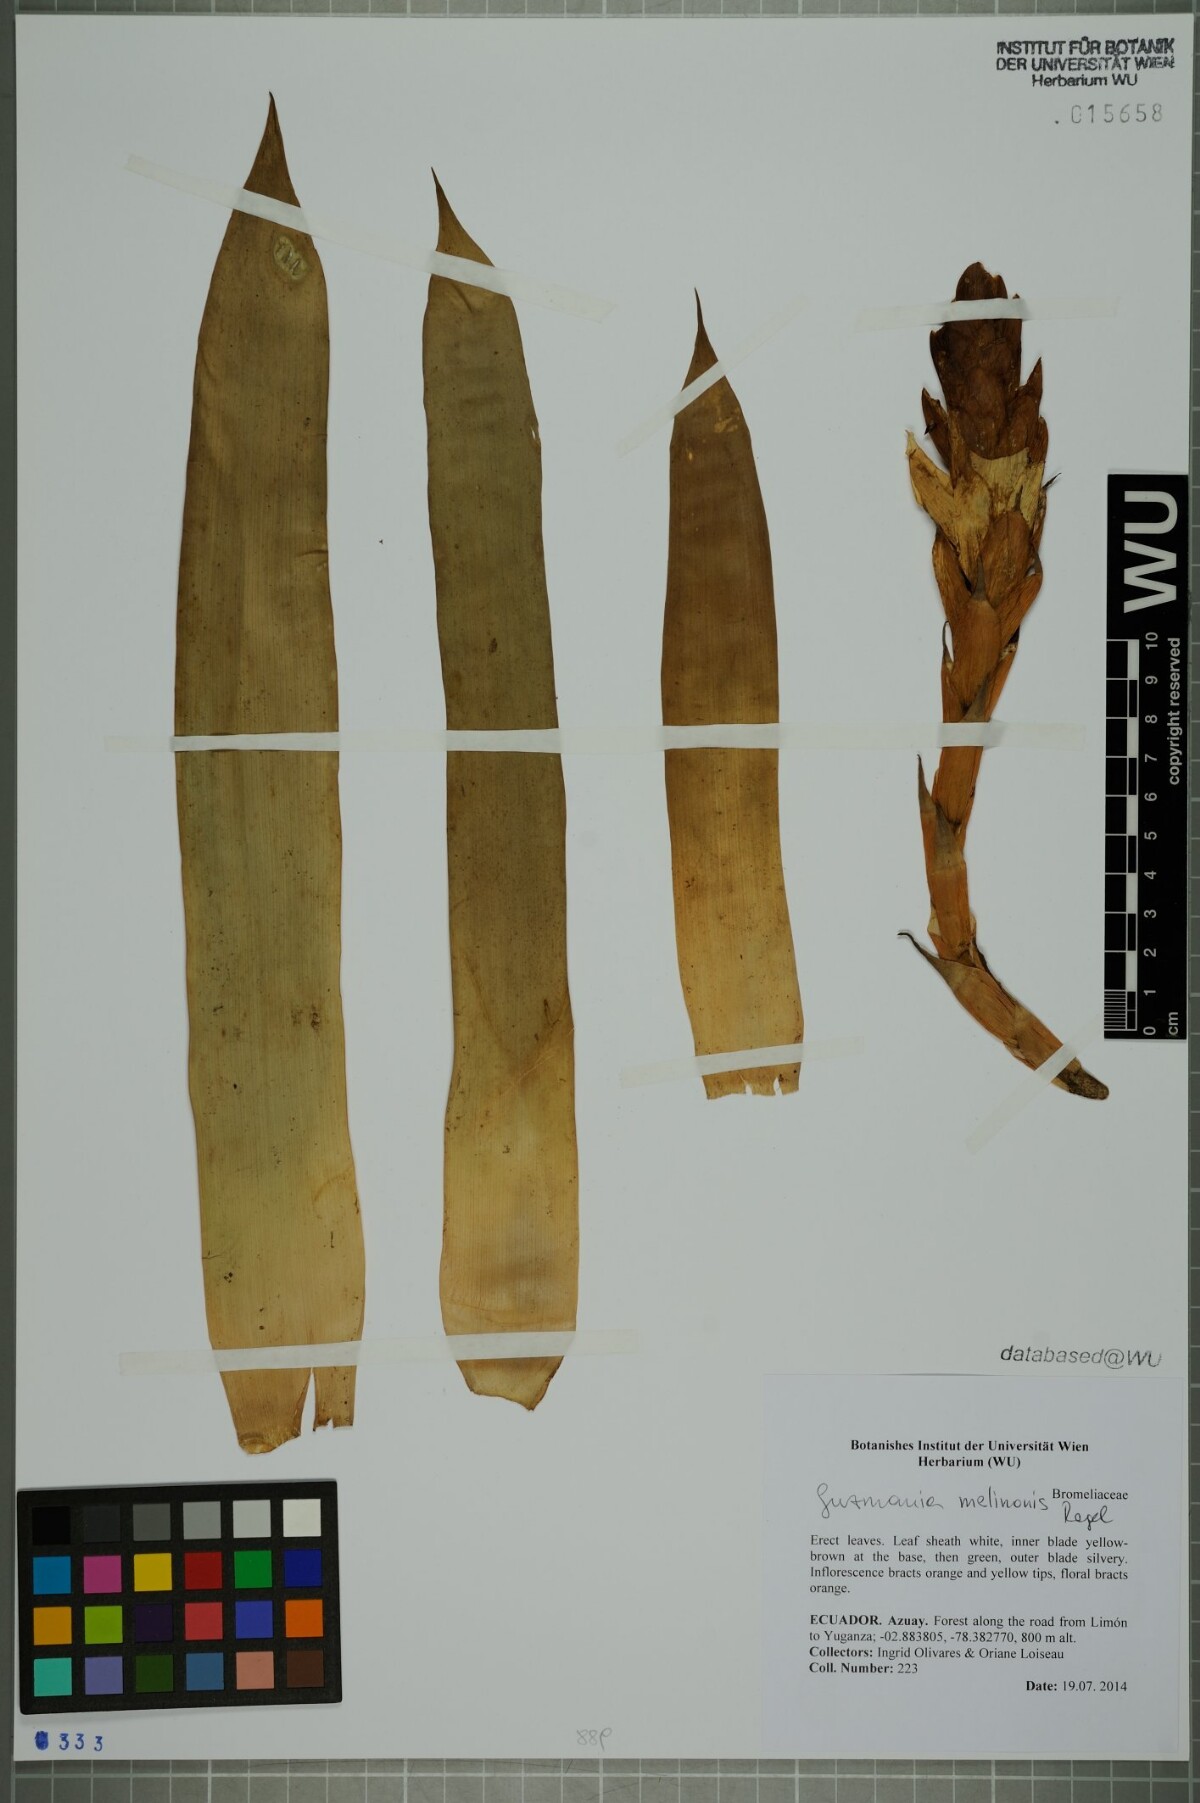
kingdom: Plantae
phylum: Tracheophyta
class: Liliopsida
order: Poales
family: Bromeliaceae
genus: Guzmania
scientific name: Guzmania melinonis
